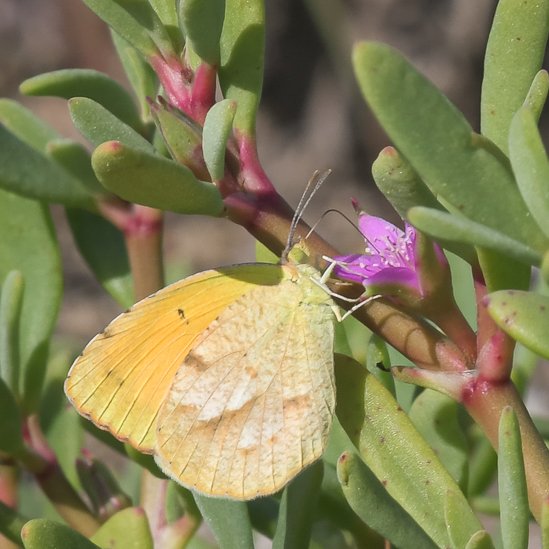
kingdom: Animalia
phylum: Arthropoda
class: Insecta
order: Lepidoptera
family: Pieridae
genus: Abaeis
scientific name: Abaeis nicippe
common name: Sleepy Orange
